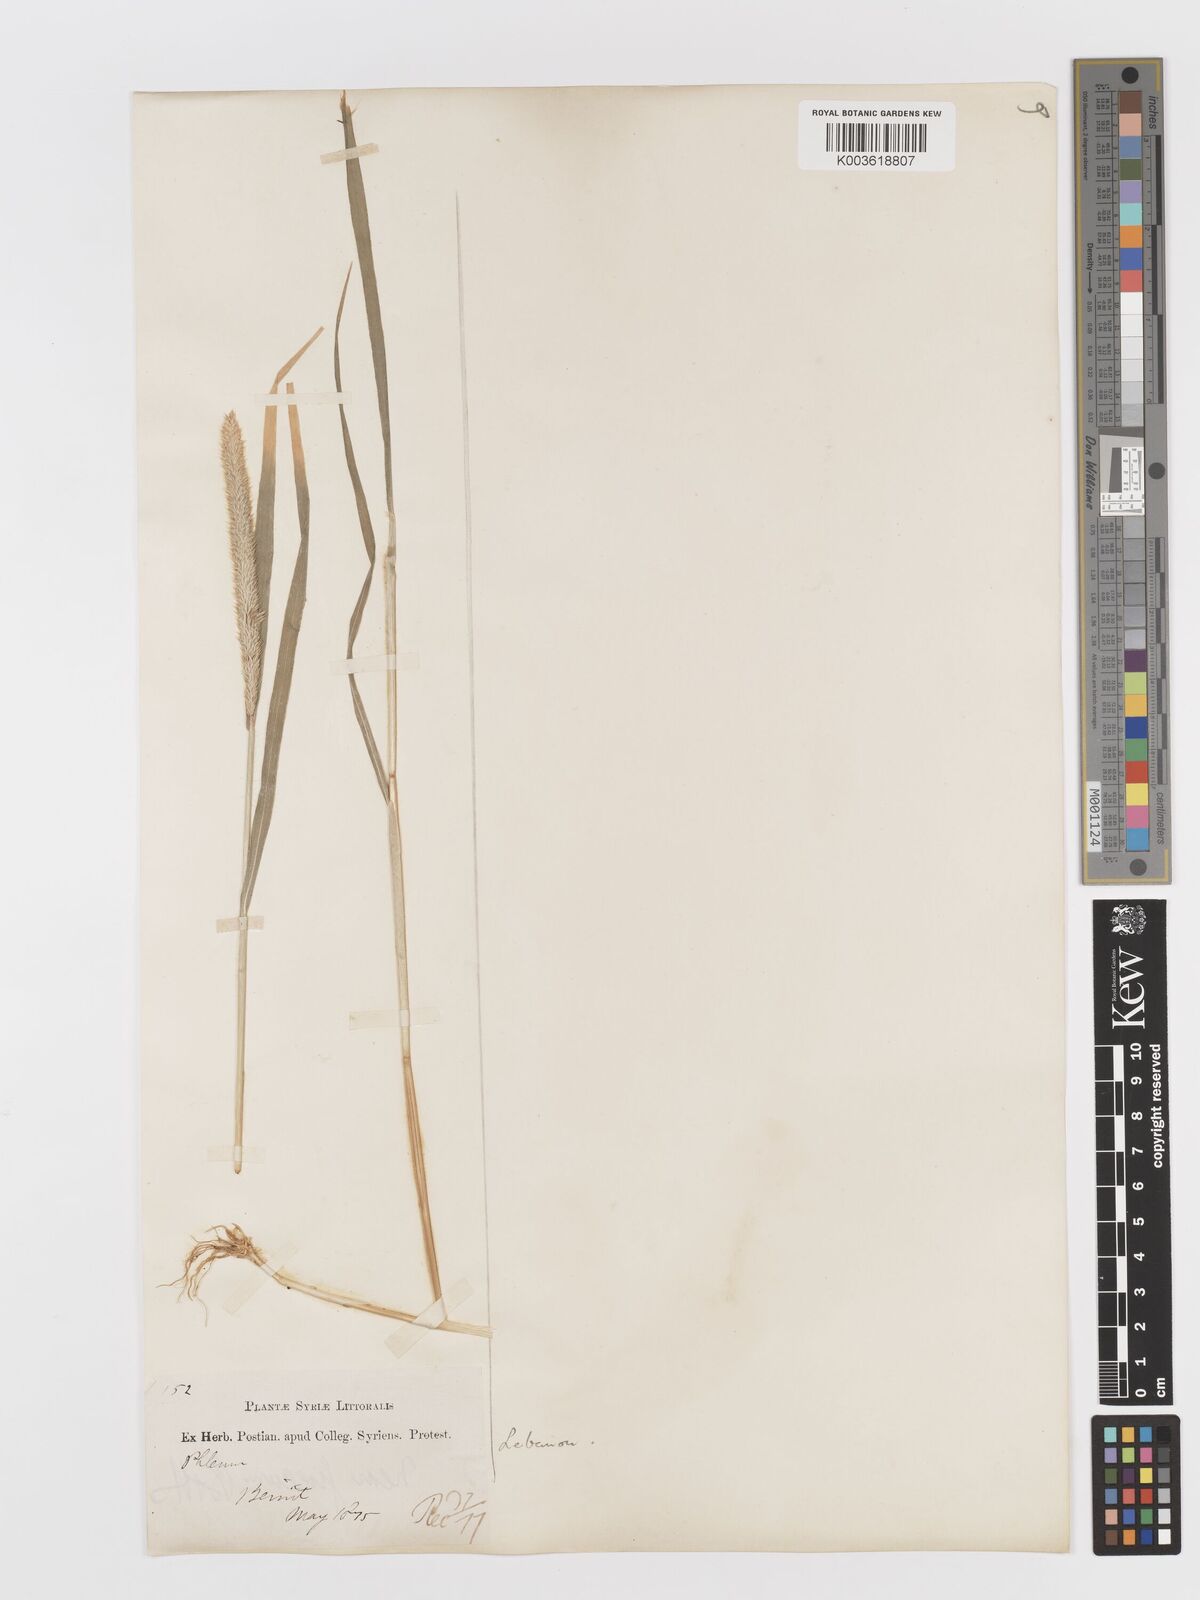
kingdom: Plantae
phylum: Tracheophyta
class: Liliopsida
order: Poales
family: Poaceae
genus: Rostraria
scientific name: Rostraria cristata
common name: Mediterranean hair-grass
